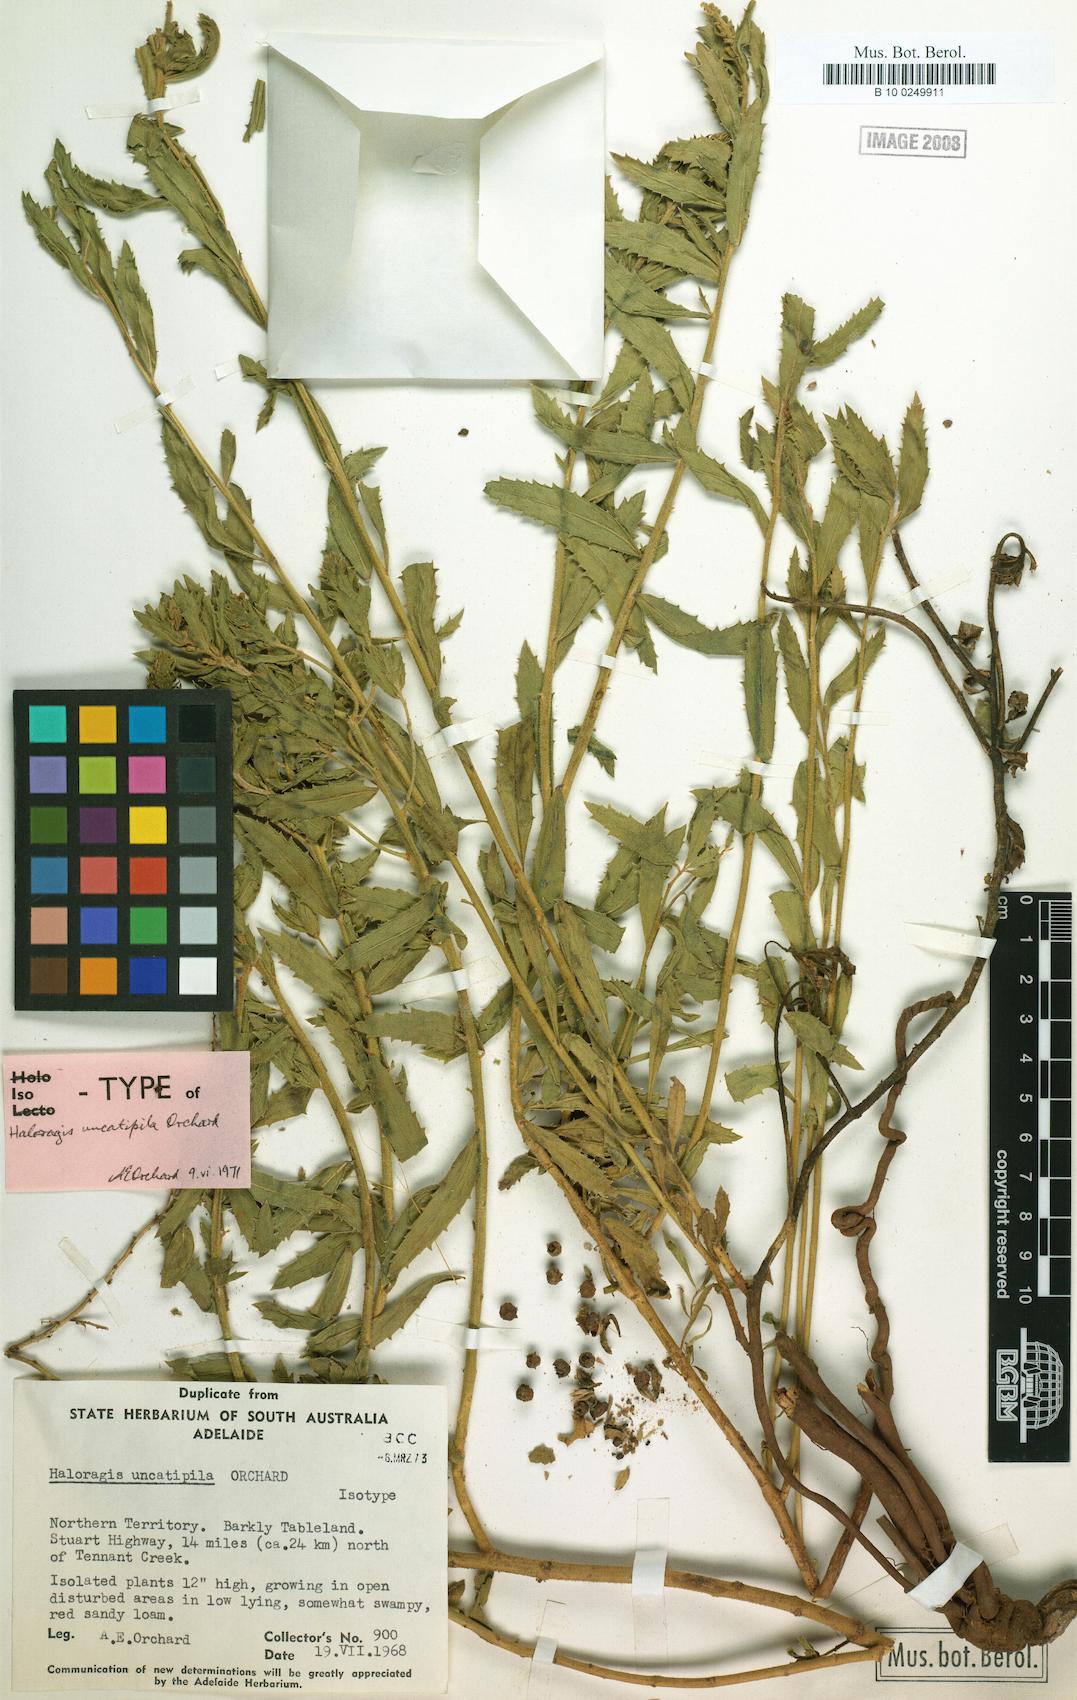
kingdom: Plantae
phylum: Tracheophyta
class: Magnoliopsida
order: Saxifragales
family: Haloragaceae
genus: Haloragis
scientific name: Haloragis uncatipila
